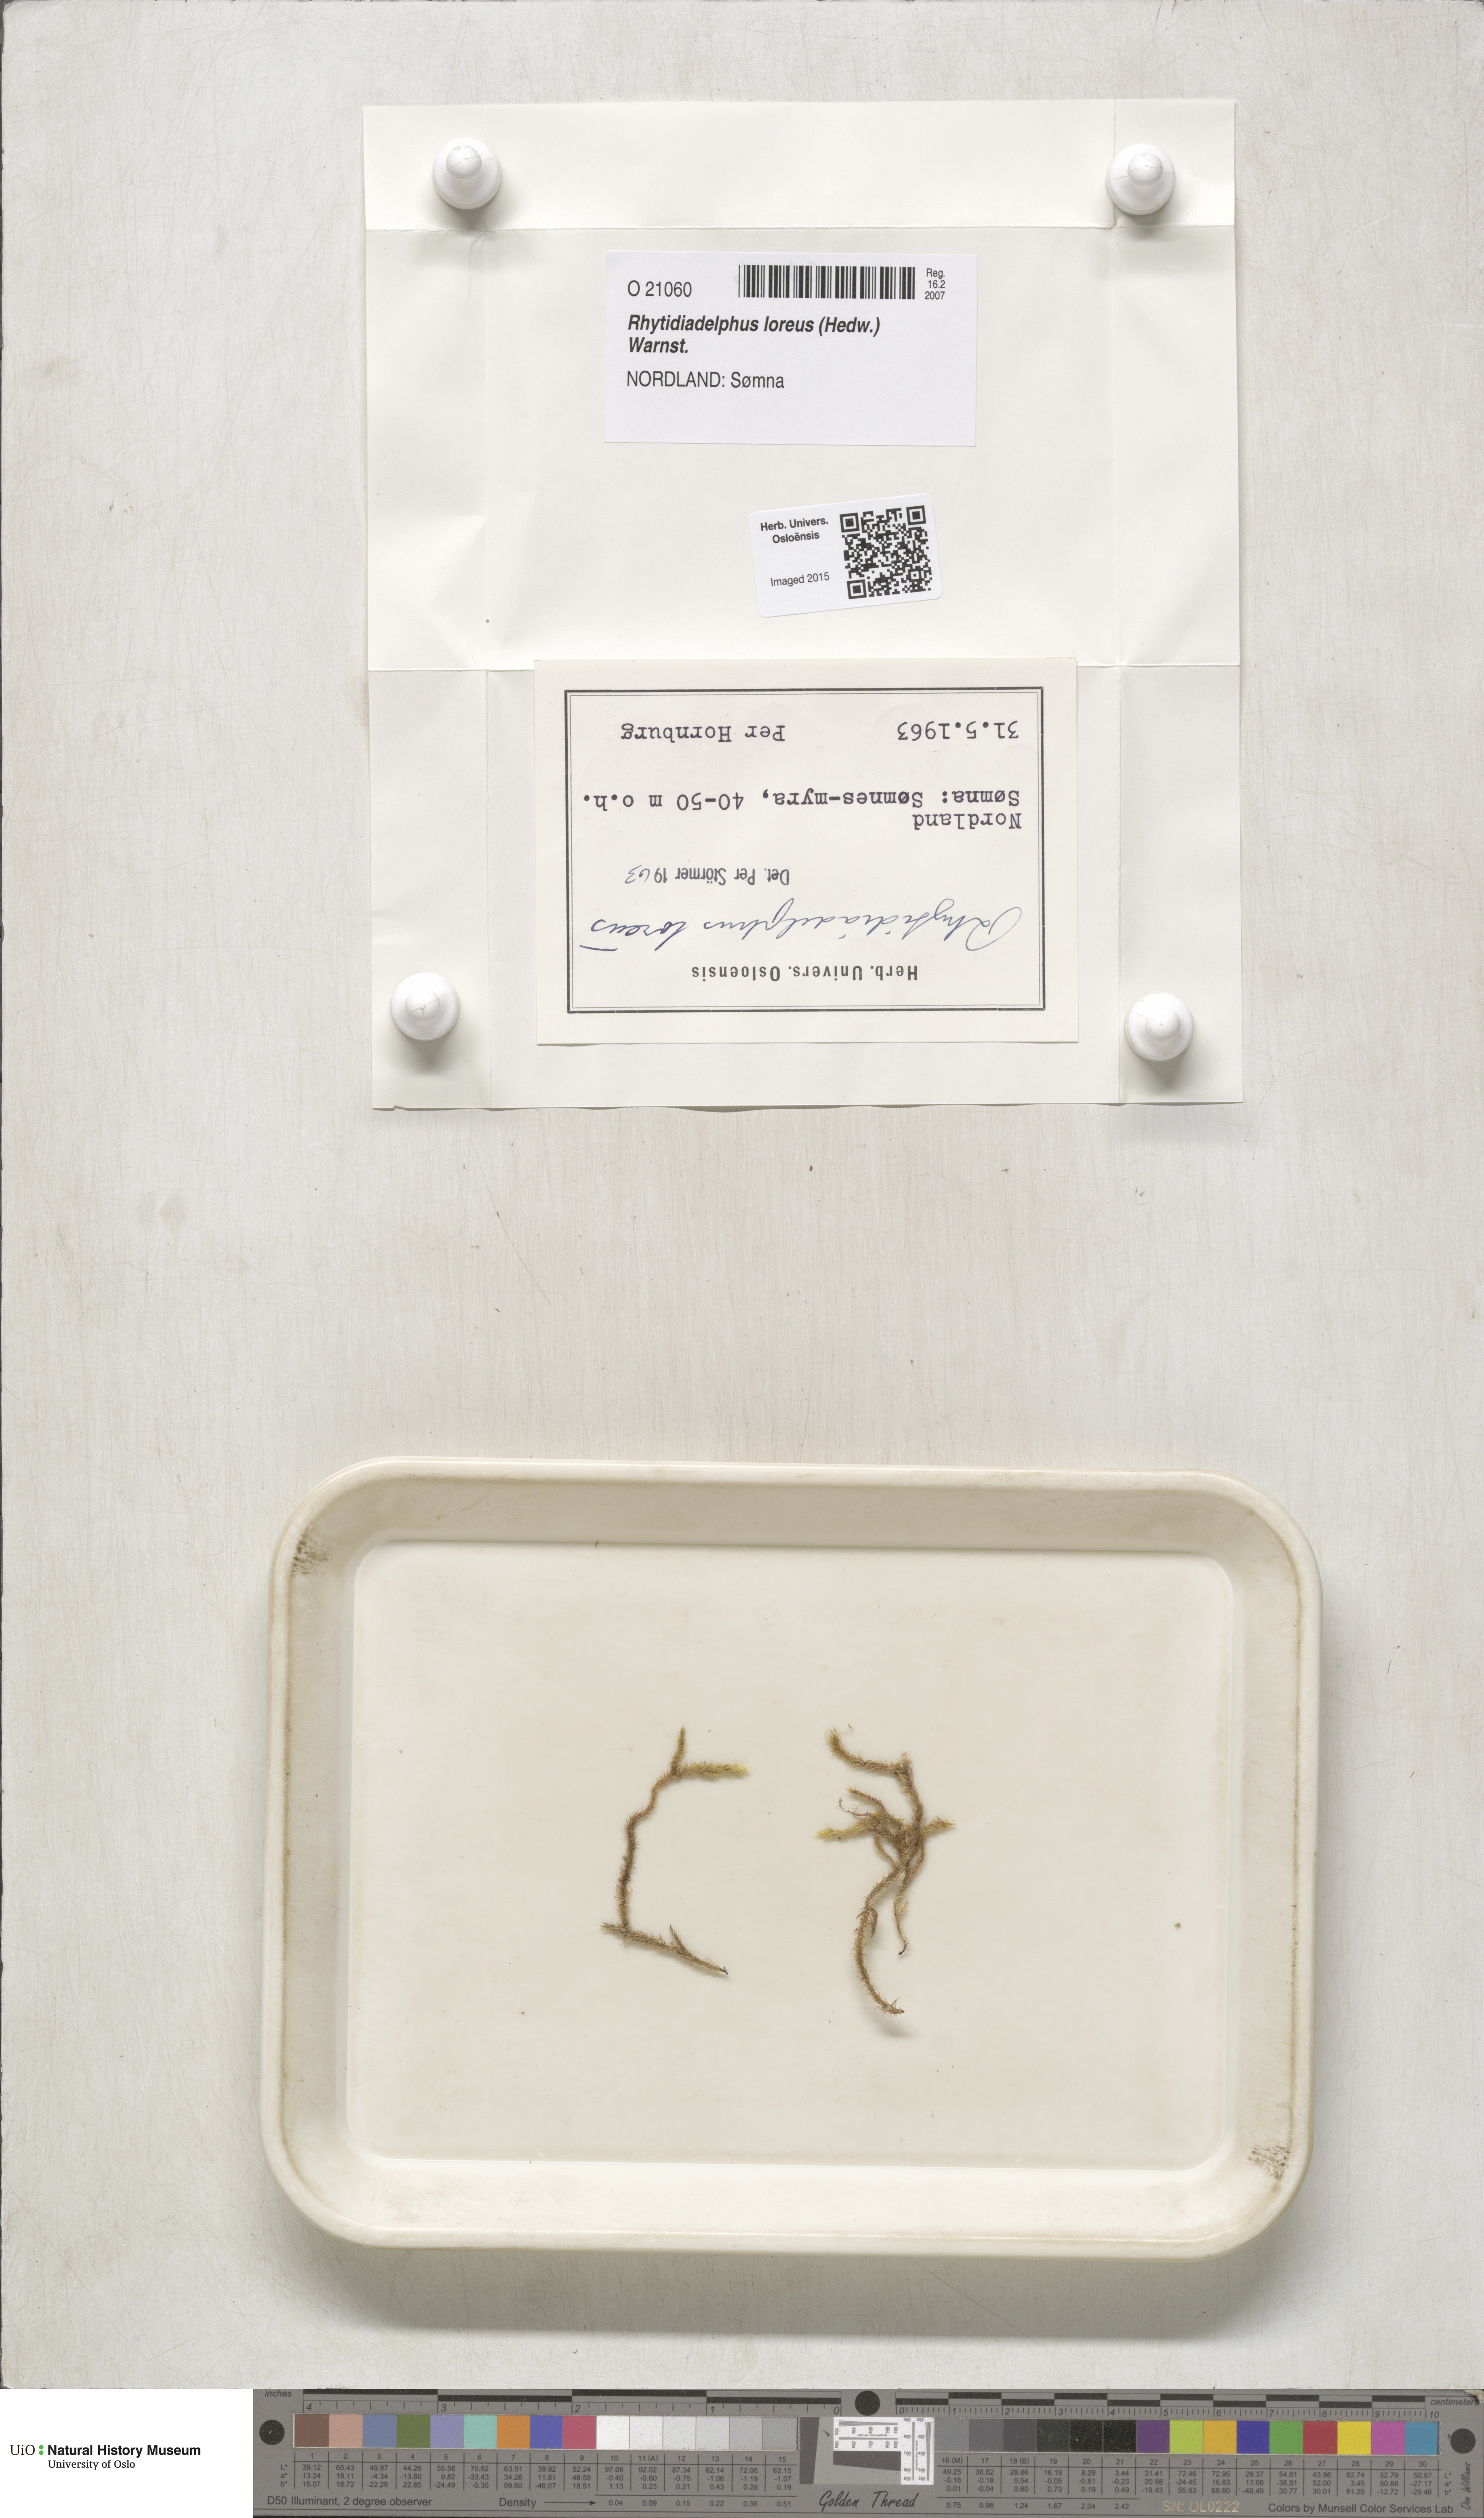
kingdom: Plantae
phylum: Bryophyta
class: Bryopsida
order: Hypnales
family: Hylocomiaceae
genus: Rhytidiadelphus
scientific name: Rhytidiadelphus loreus
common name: Lanky moss
